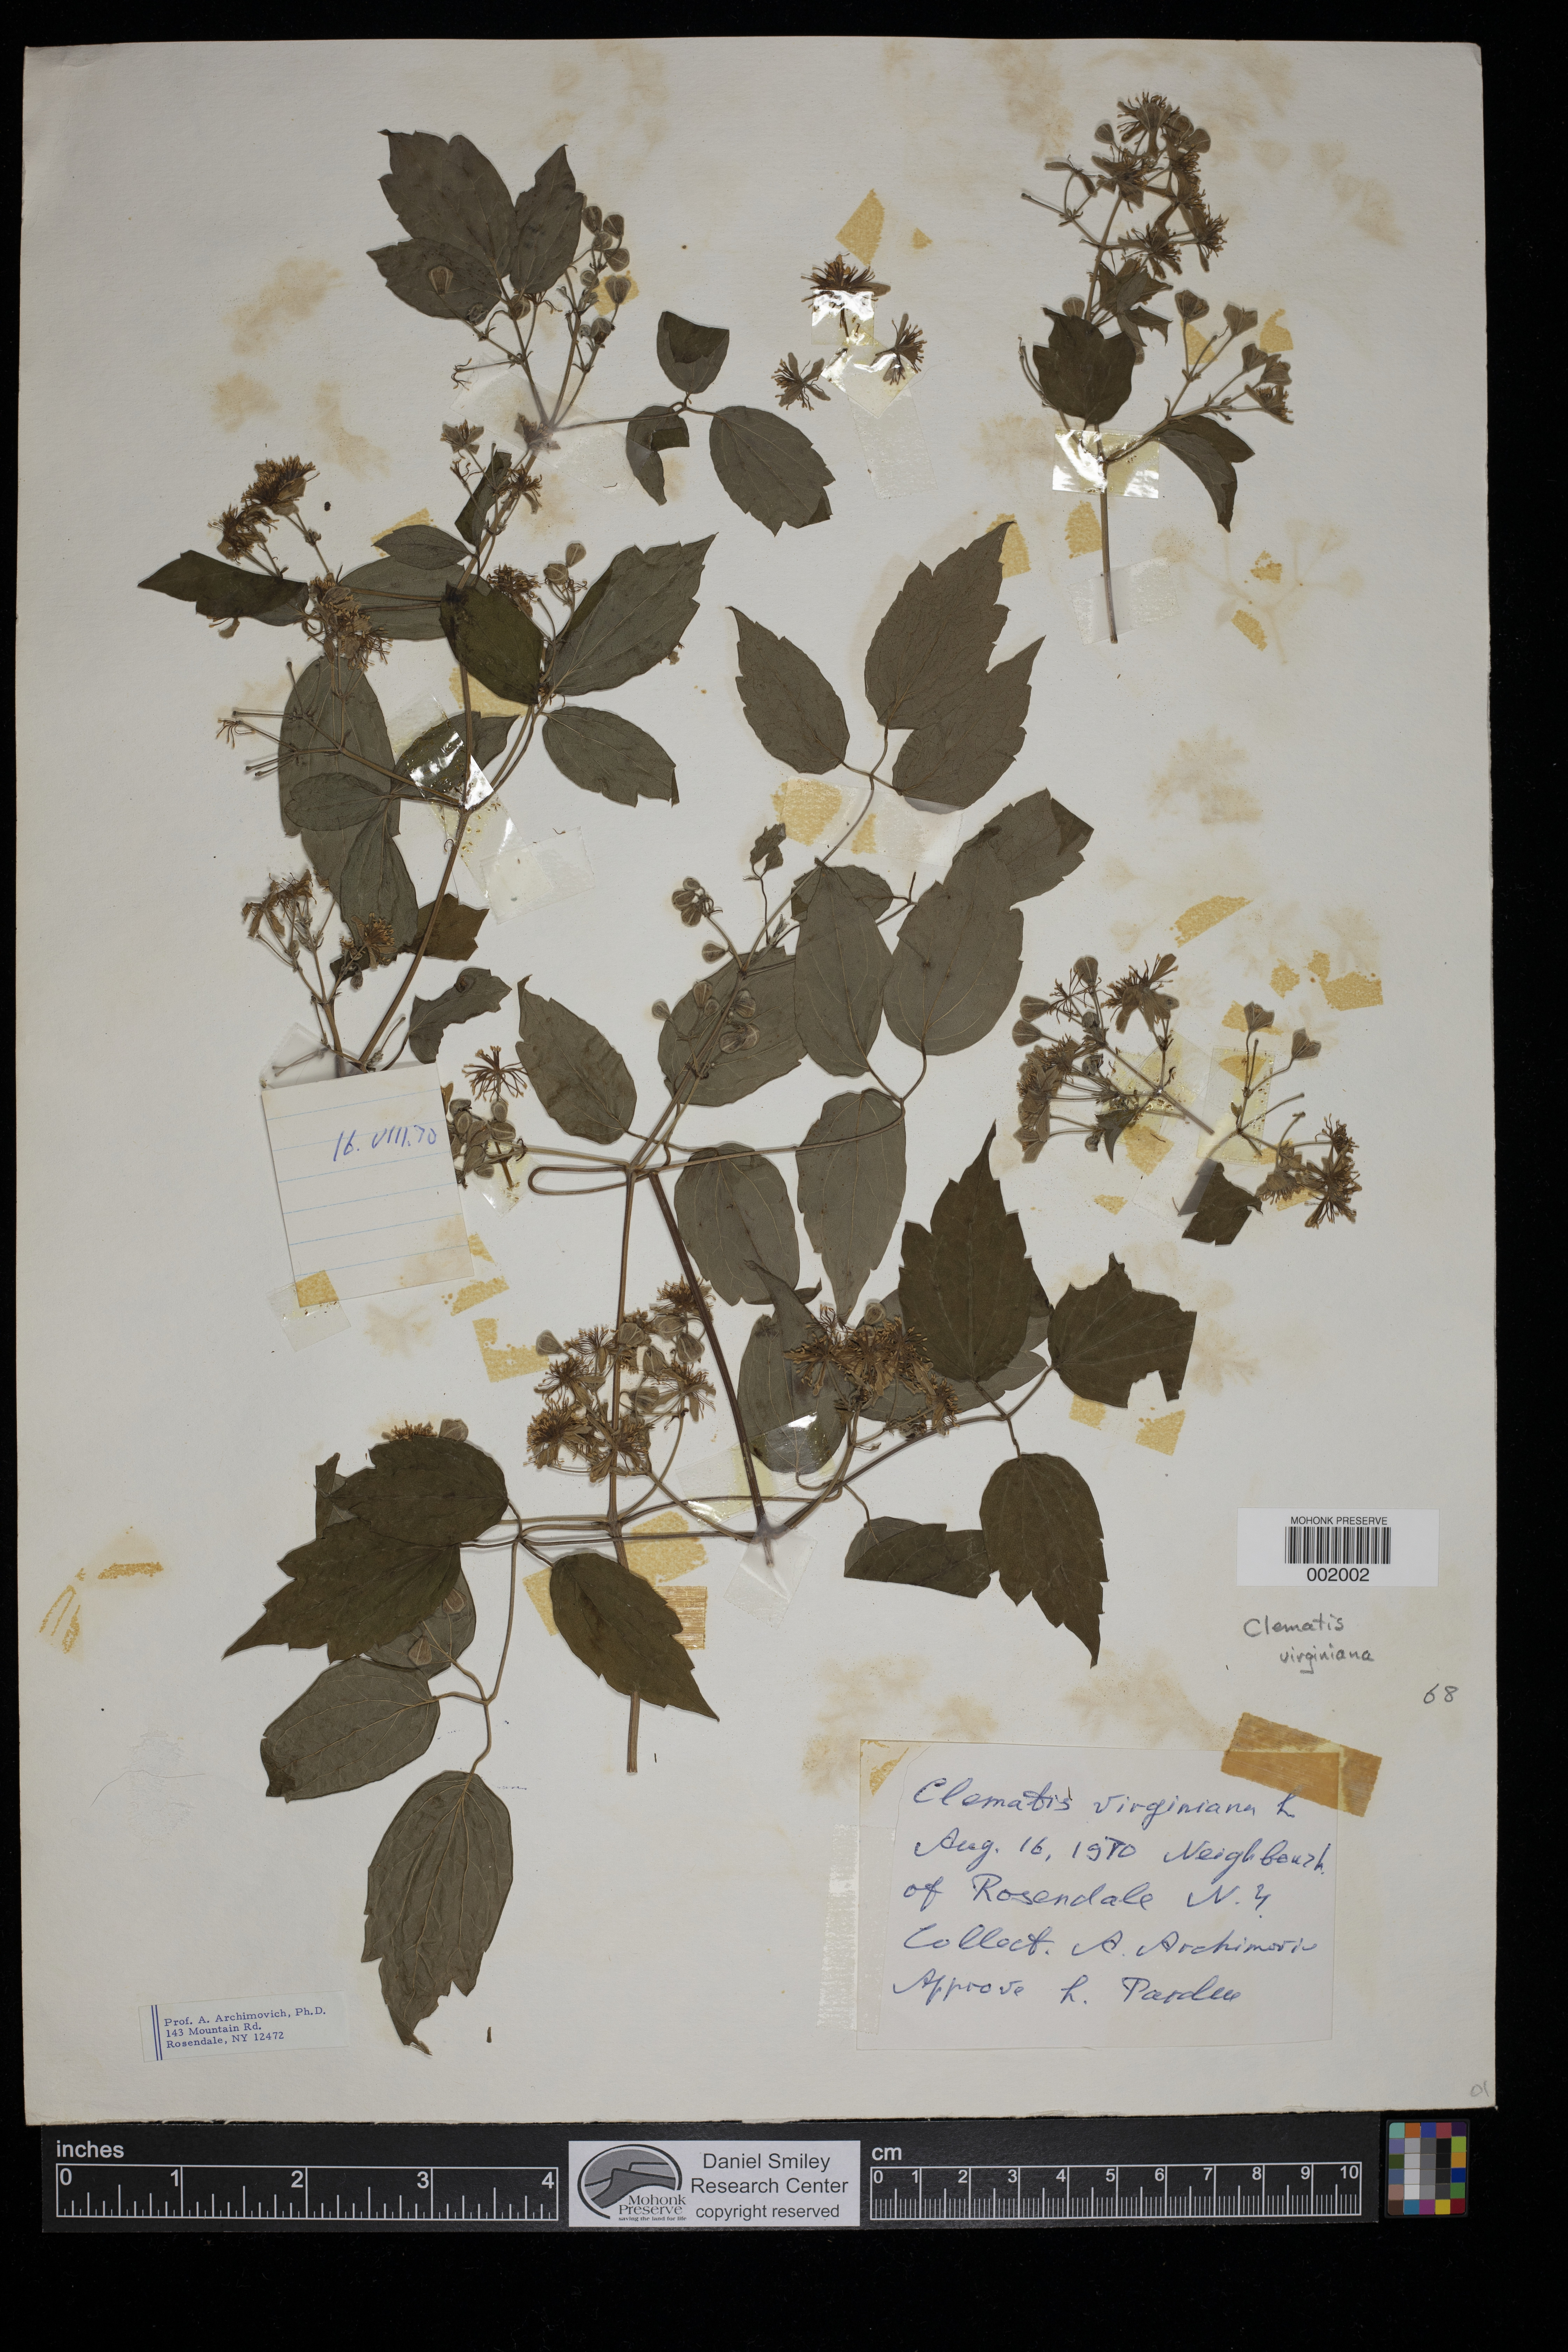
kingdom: Plantae
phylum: Tracheophyta
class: Magnoliopsida
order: Ranunculales
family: Ranunculaceae
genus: Clematis
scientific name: Clematis virginiana
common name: Virgin's-bower
